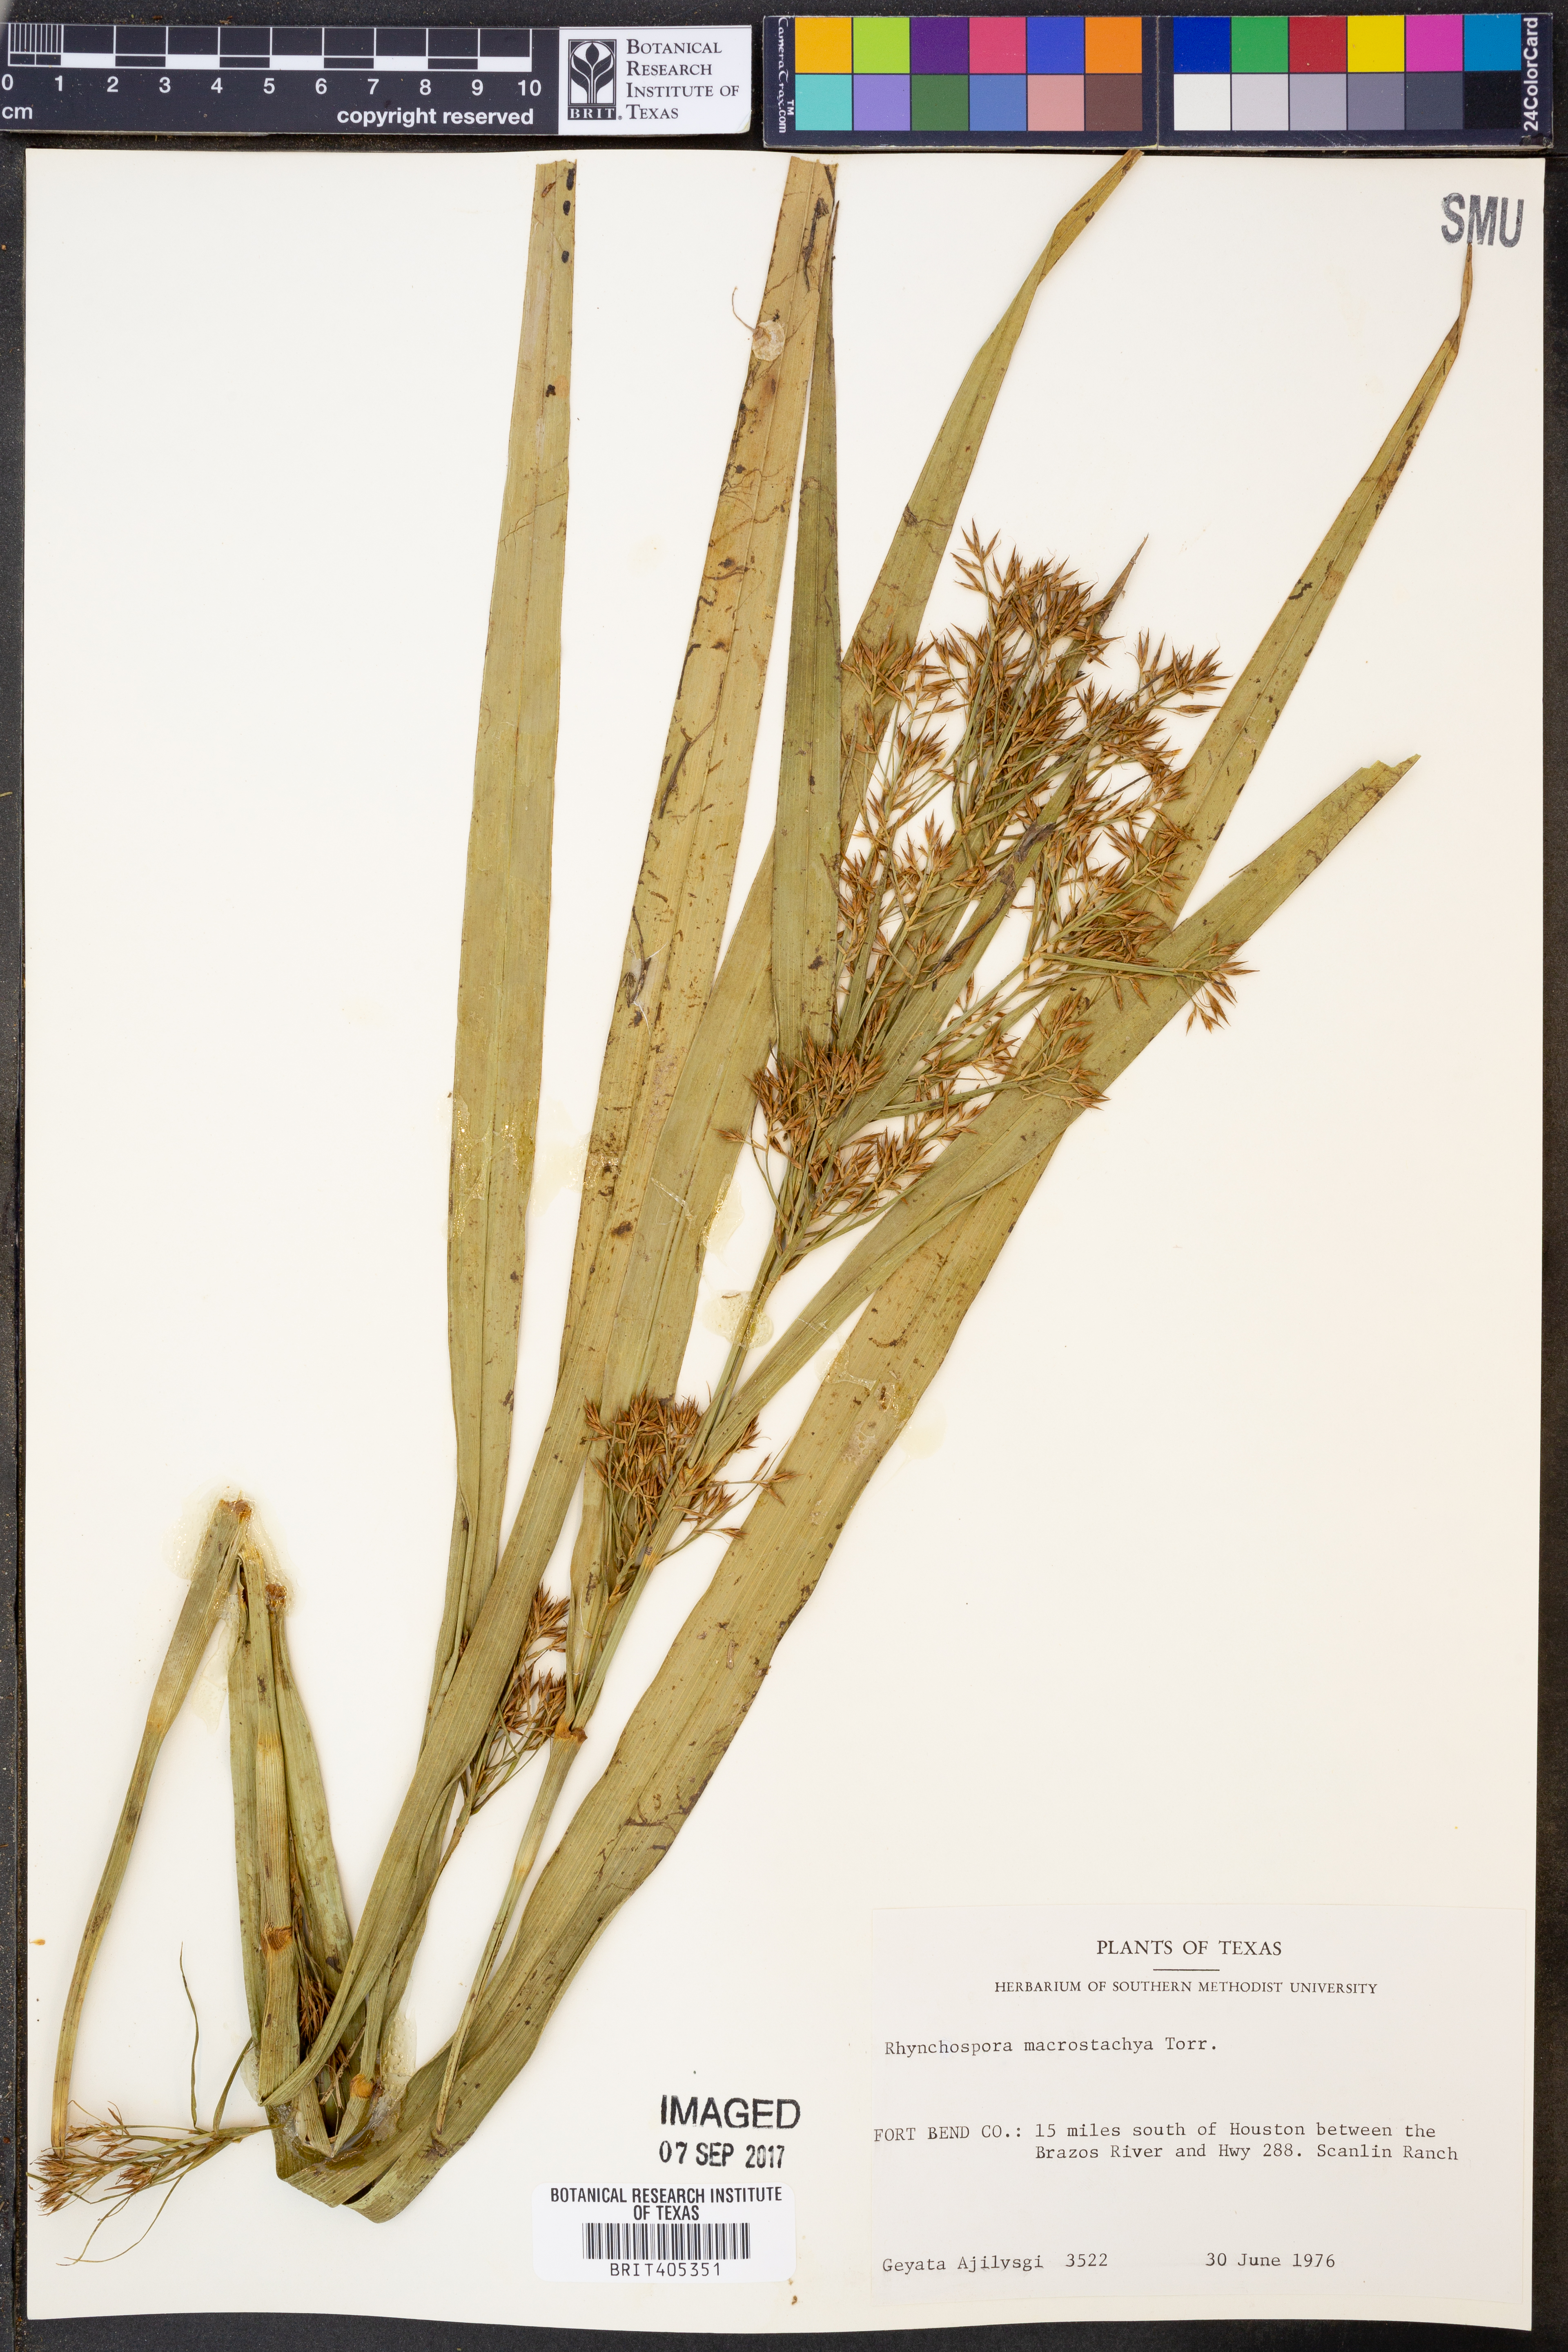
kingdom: Plantae
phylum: Tracheophyta
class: Liliopsida
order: Poales
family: Cyperaceae
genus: Rhynchospora
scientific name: Rhynchospora macrostachya
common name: Tall beakrush
